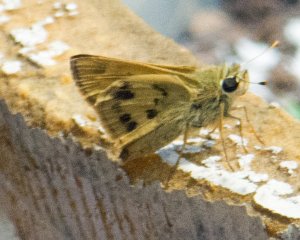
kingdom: Animalia
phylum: Arthropoda
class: Insecta
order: Lepidoptera
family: Hesperiidae
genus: Polites
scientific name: Polites vibex
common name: Whirlabout
